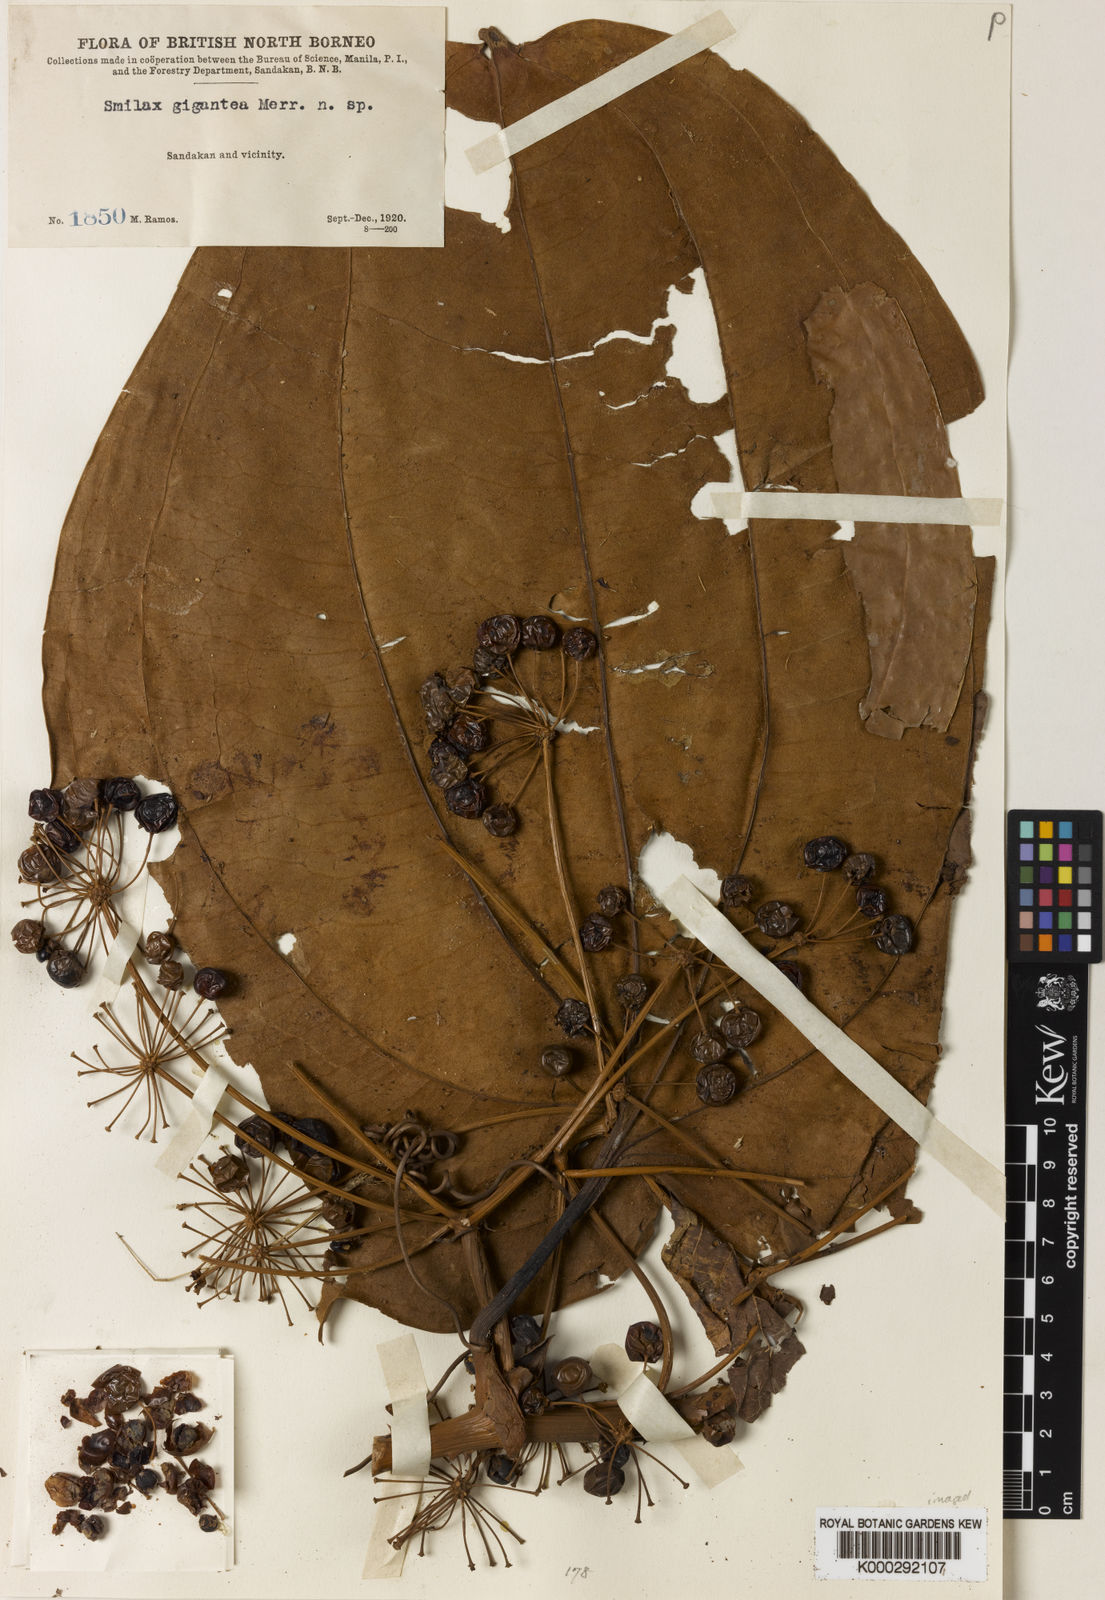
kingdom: Plantae
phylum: Tracheophyta
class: Liliopsida
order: Liliales
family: Smilacaceae
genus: Smilax
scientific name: Smilax gigantea
